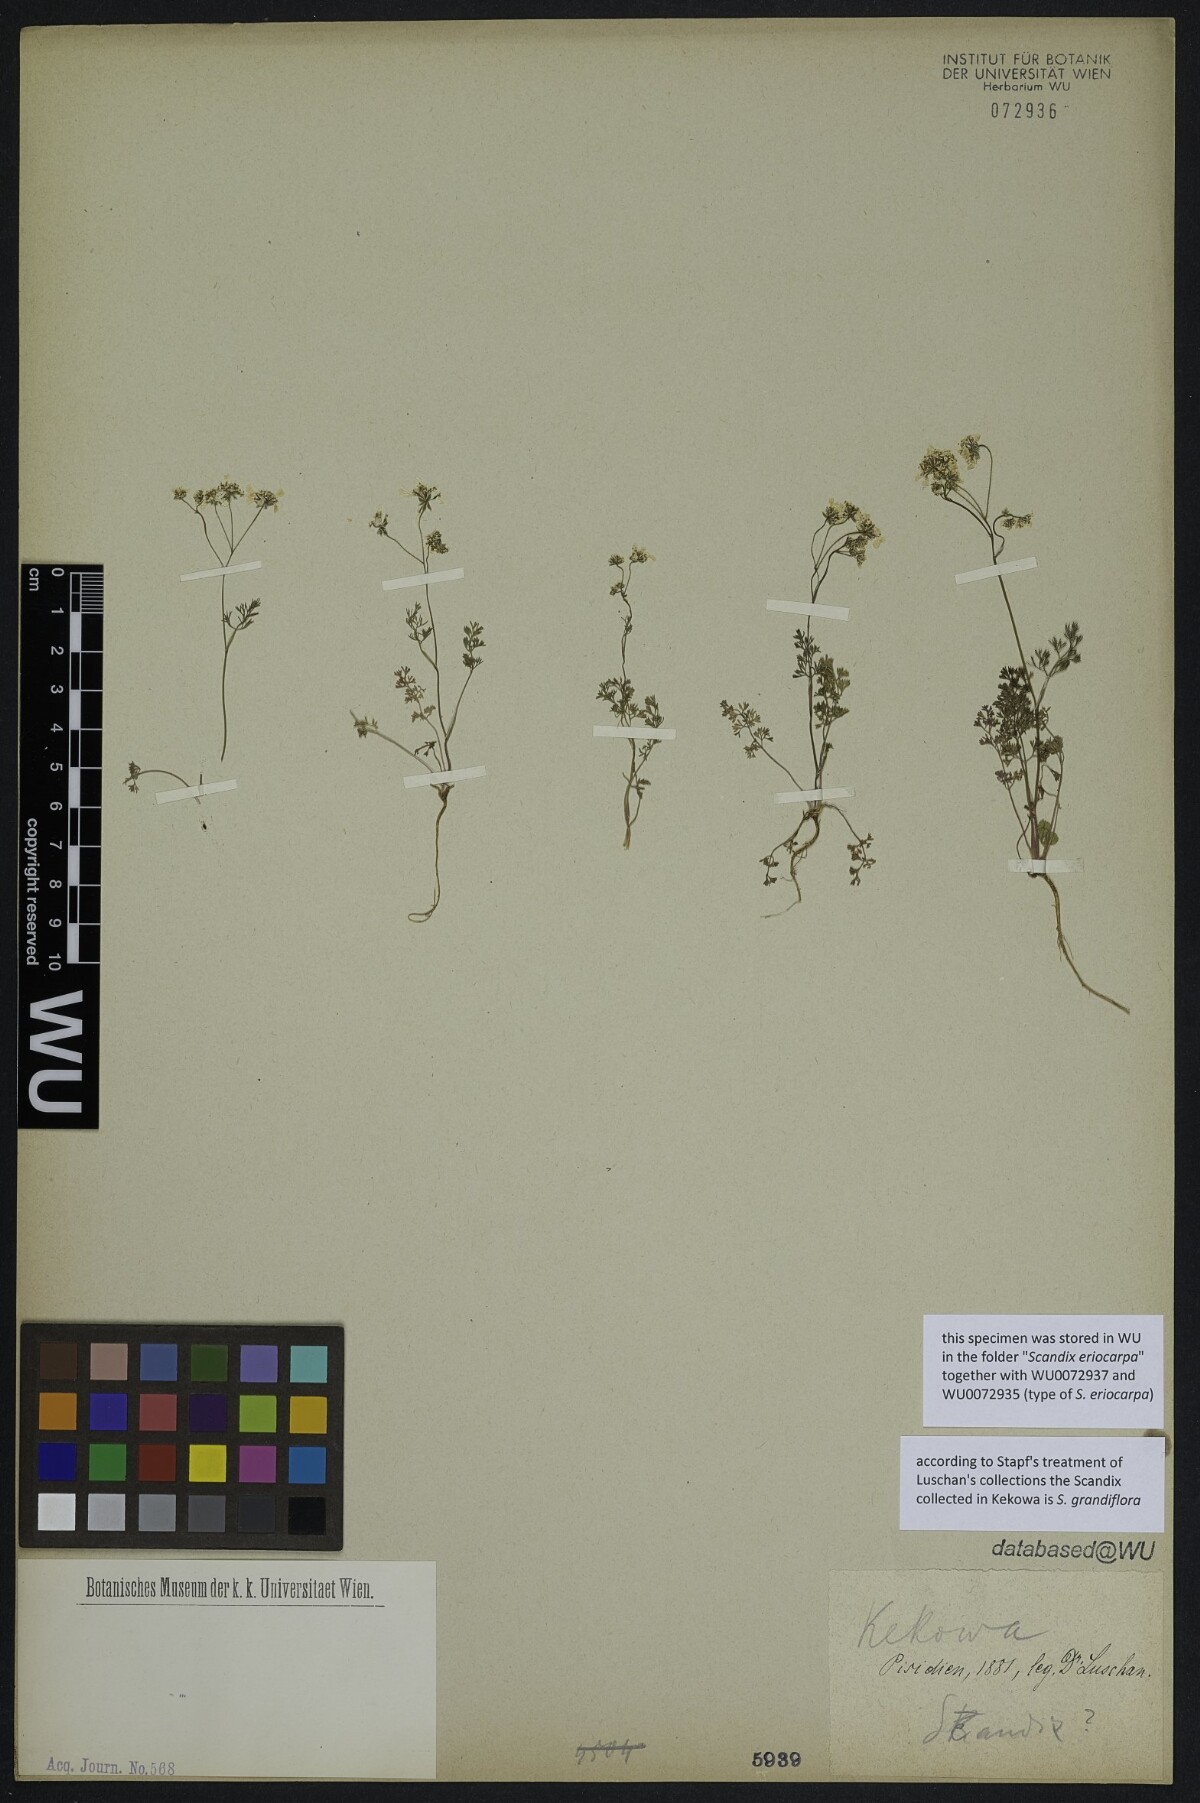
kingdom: Plantae
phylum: Tracheophyta
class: Magnoliopsida
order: Apiales
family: Apiaceae
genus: Scandix
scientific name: Scandix
